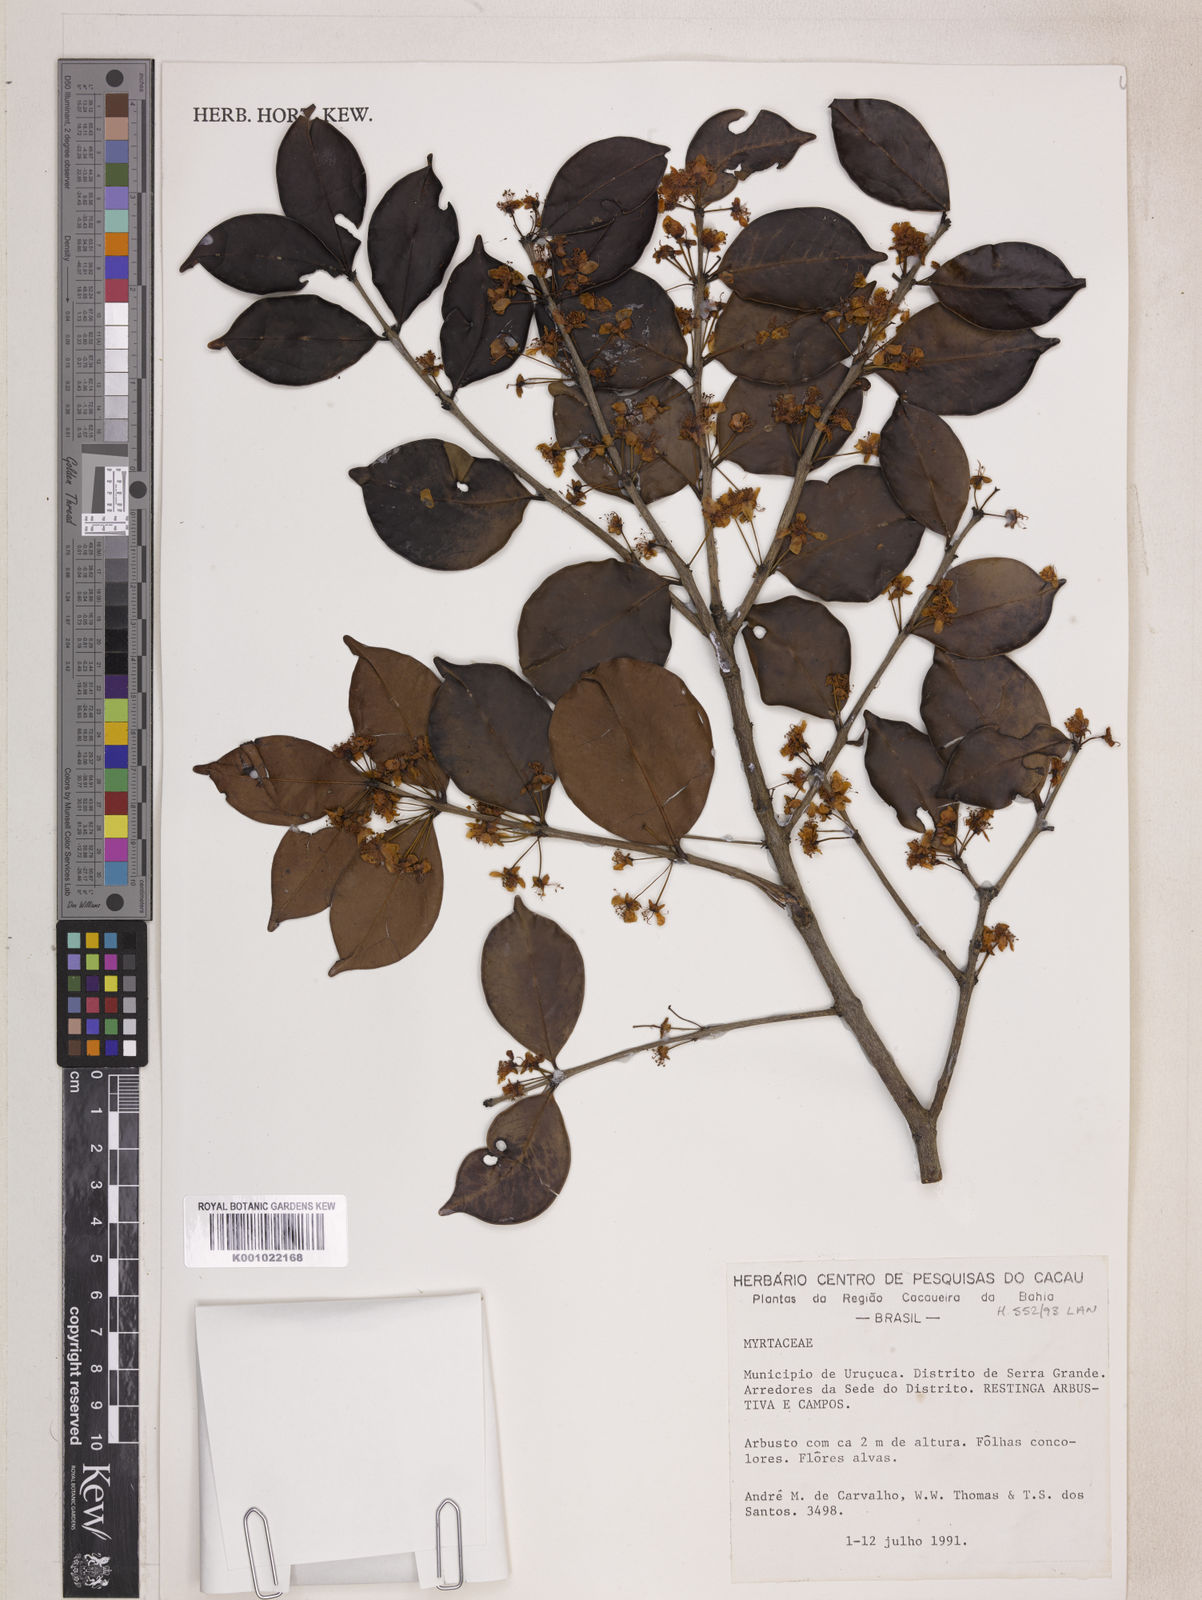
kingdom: Plantae
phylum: Tracheophyta
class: Magnoliopsida
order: Myrtales
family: Myrtaceae
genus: Eugenia
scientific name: Eugenia punicifolia
